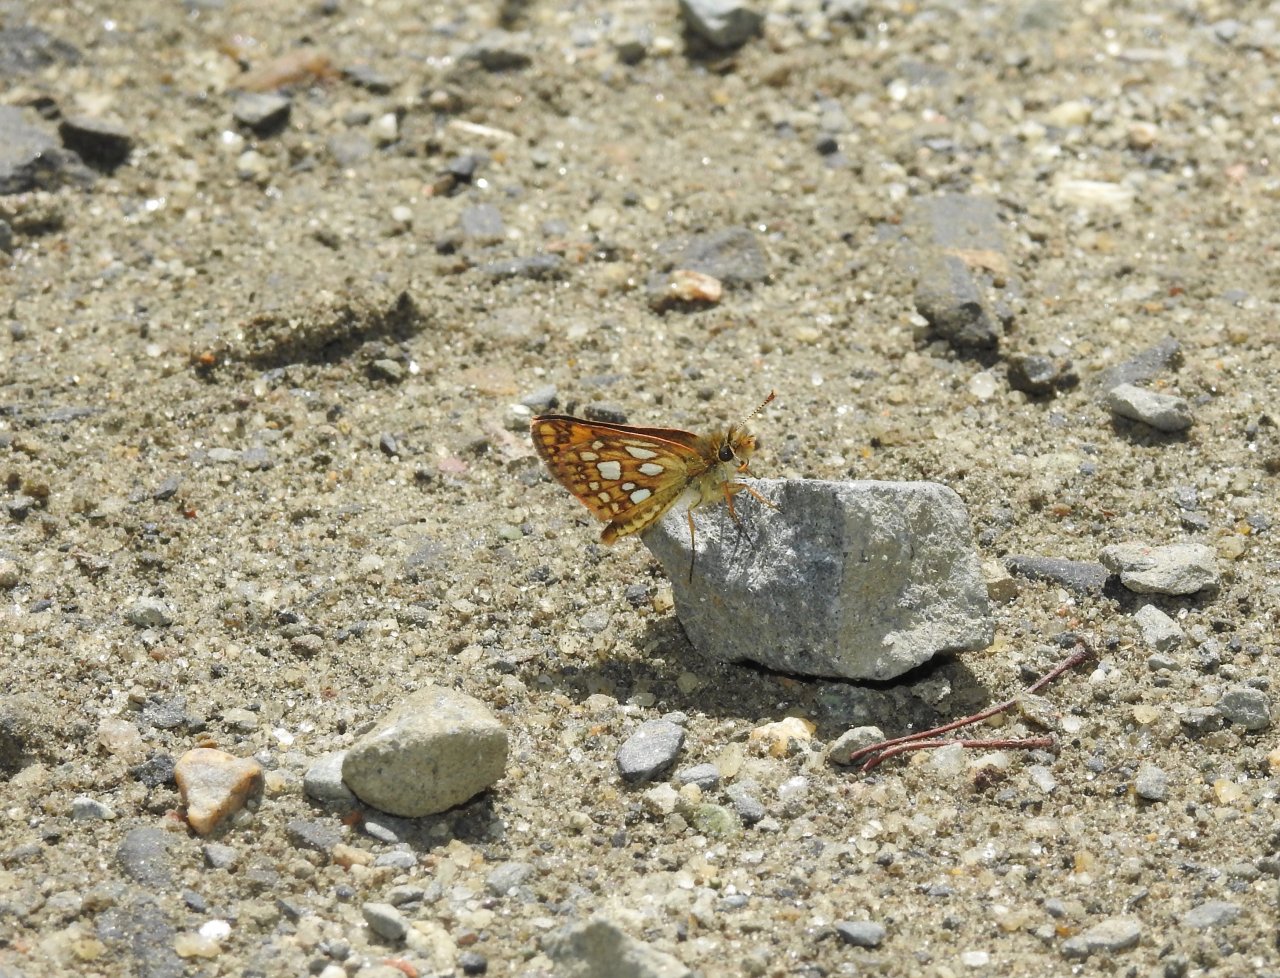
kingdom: Animalia
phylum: Arthropoda
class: Insecta
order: Lepidoptera
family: Hesperiidae
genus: Carterocephalus
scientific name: Carterocephalus palaemon
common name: Chequered Skipper
